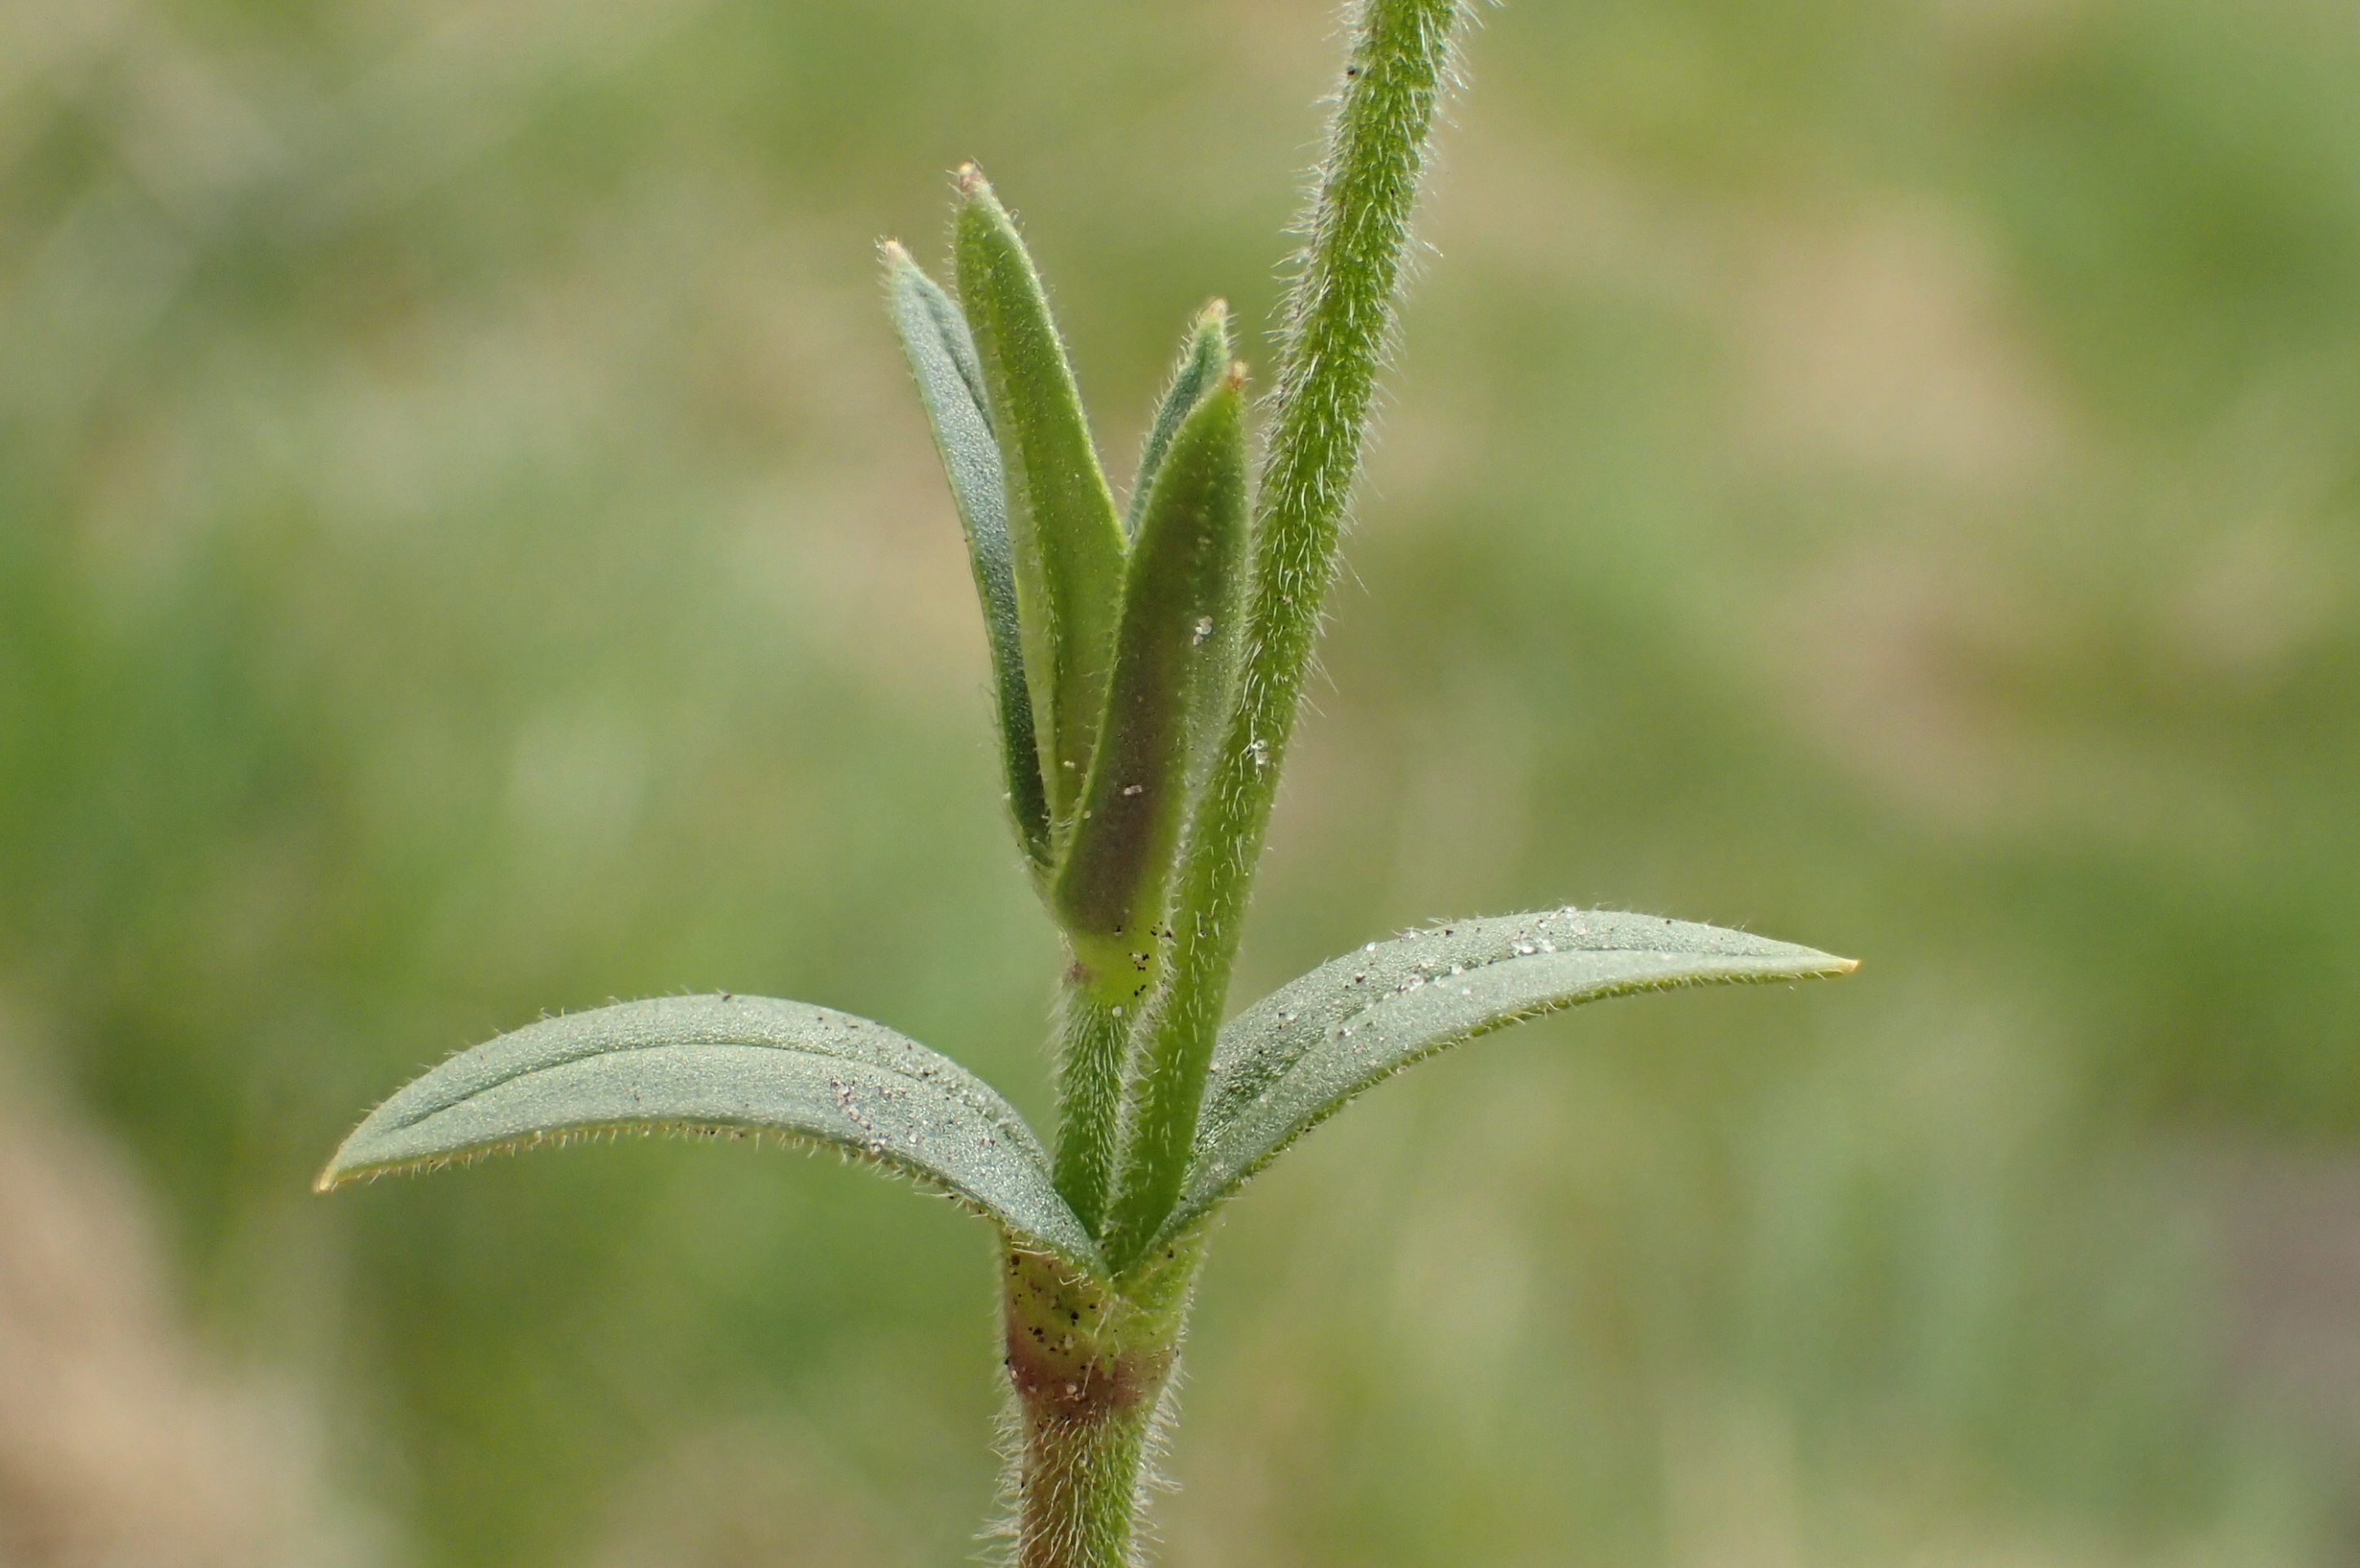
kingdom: Plantae
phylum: Tracheophyta
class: Magnoliopsida
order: Caryophyllales
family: Caryophyllaceae
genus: Cerastium
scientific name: Cerastium arvense
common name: Storblomstret hønsetarm
